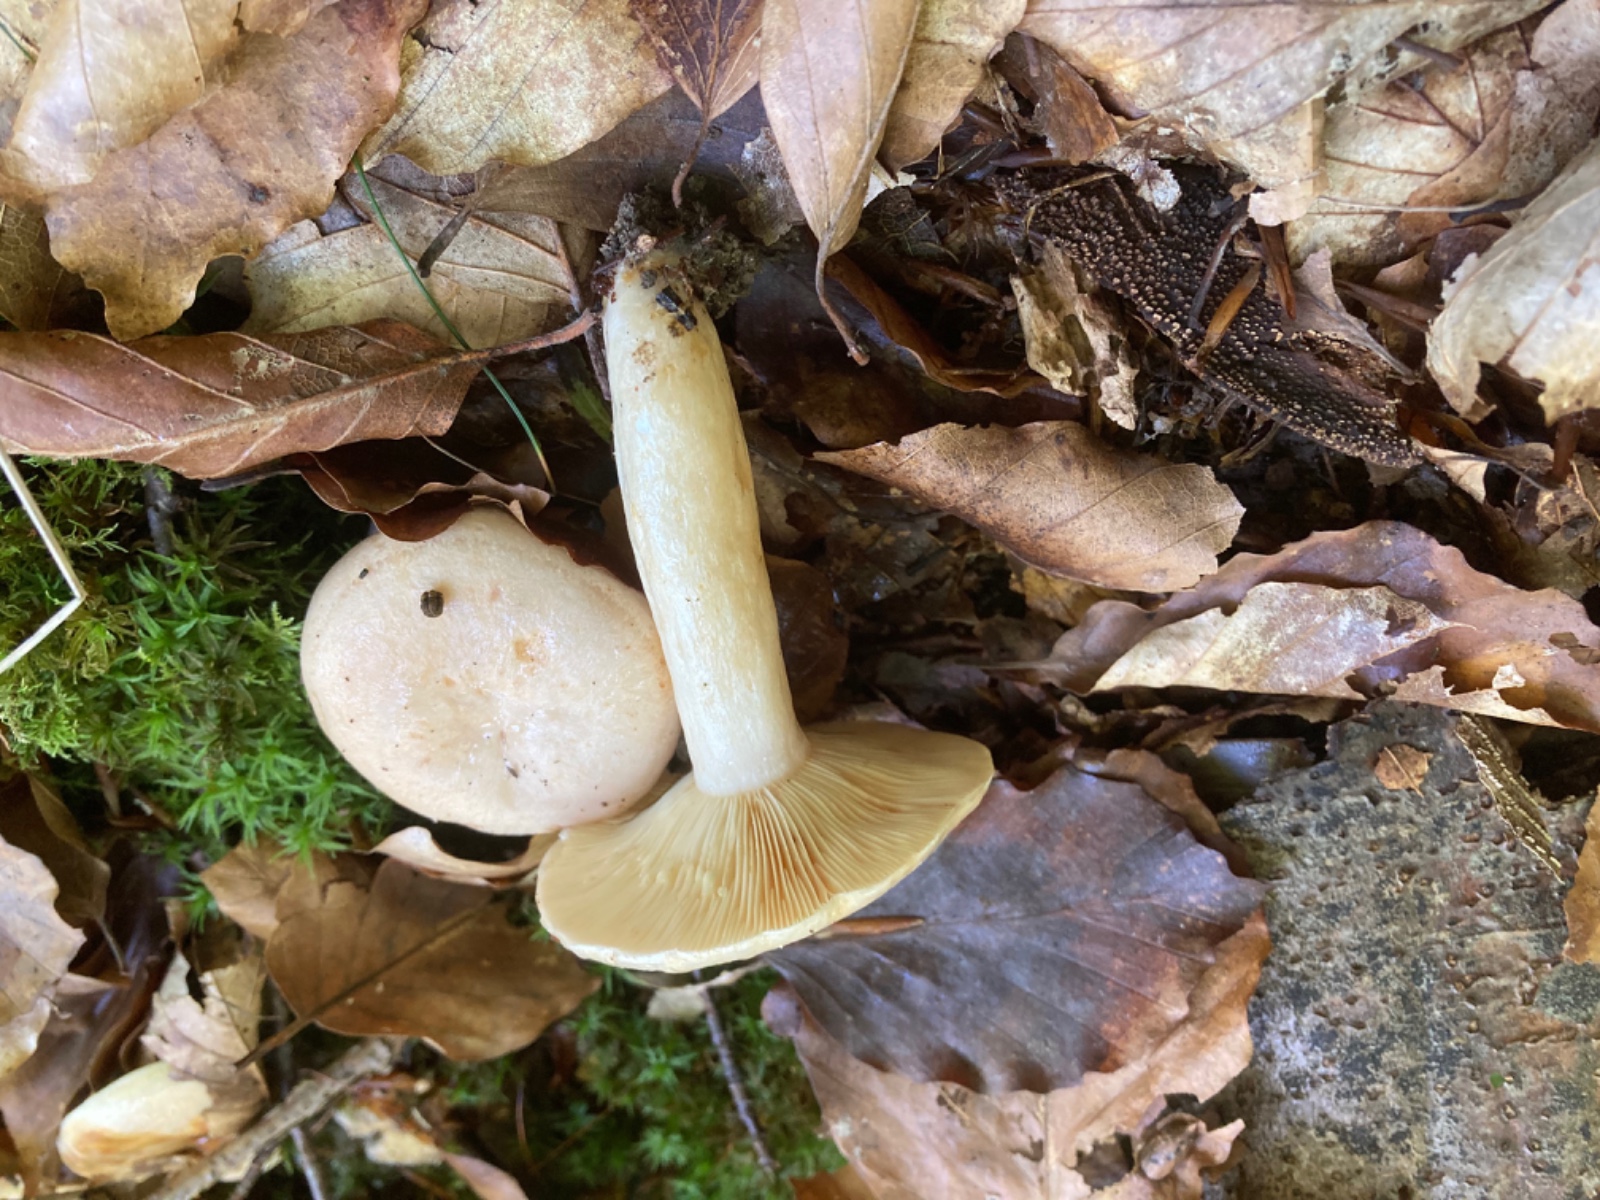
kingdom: Fungi
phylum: Basidiomycota
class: Agaricomycetes
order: Russulales
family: Russulaceae
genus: Lactarius
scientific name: Lactarius pallidus
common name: bleg mælkehat
